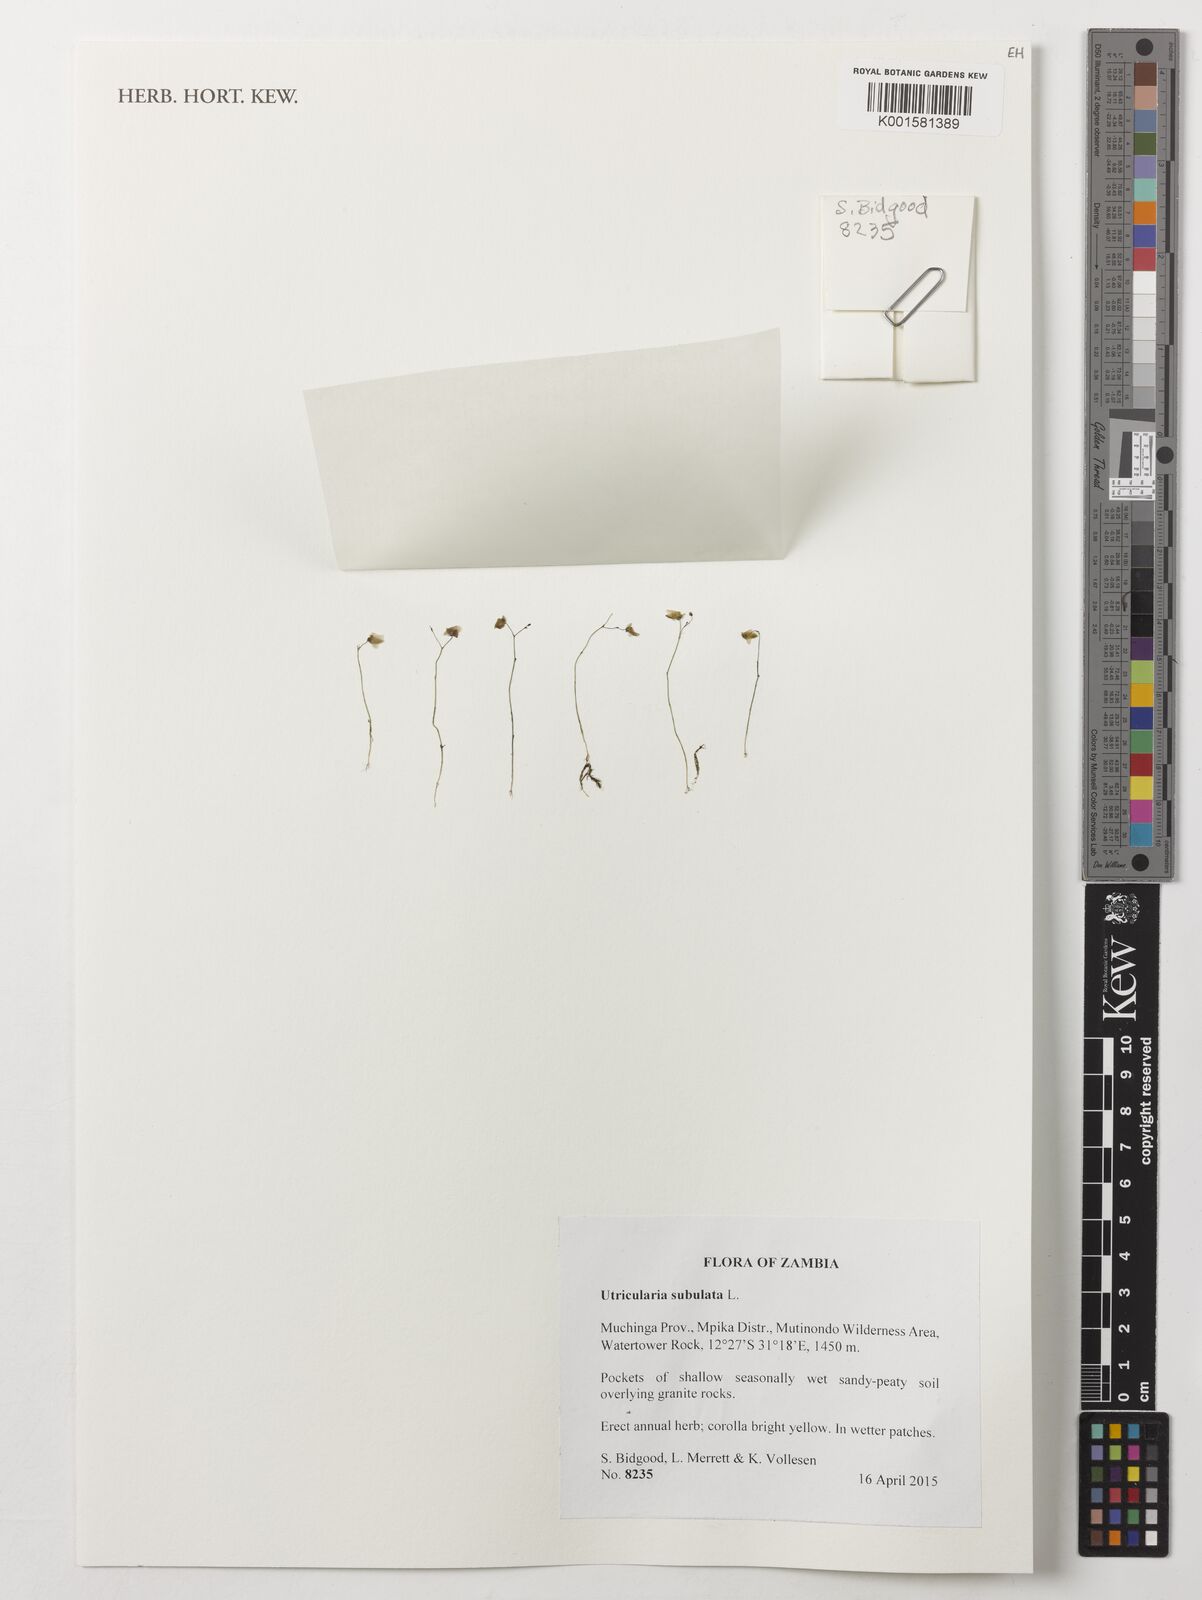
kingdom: Plantae
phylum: Tracheophyta
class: Magnoliopsida
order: Lamiales
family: Lentibulariaceae
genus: Utricularia
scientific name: Utricularia subulata
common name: Tiny bladderwort
